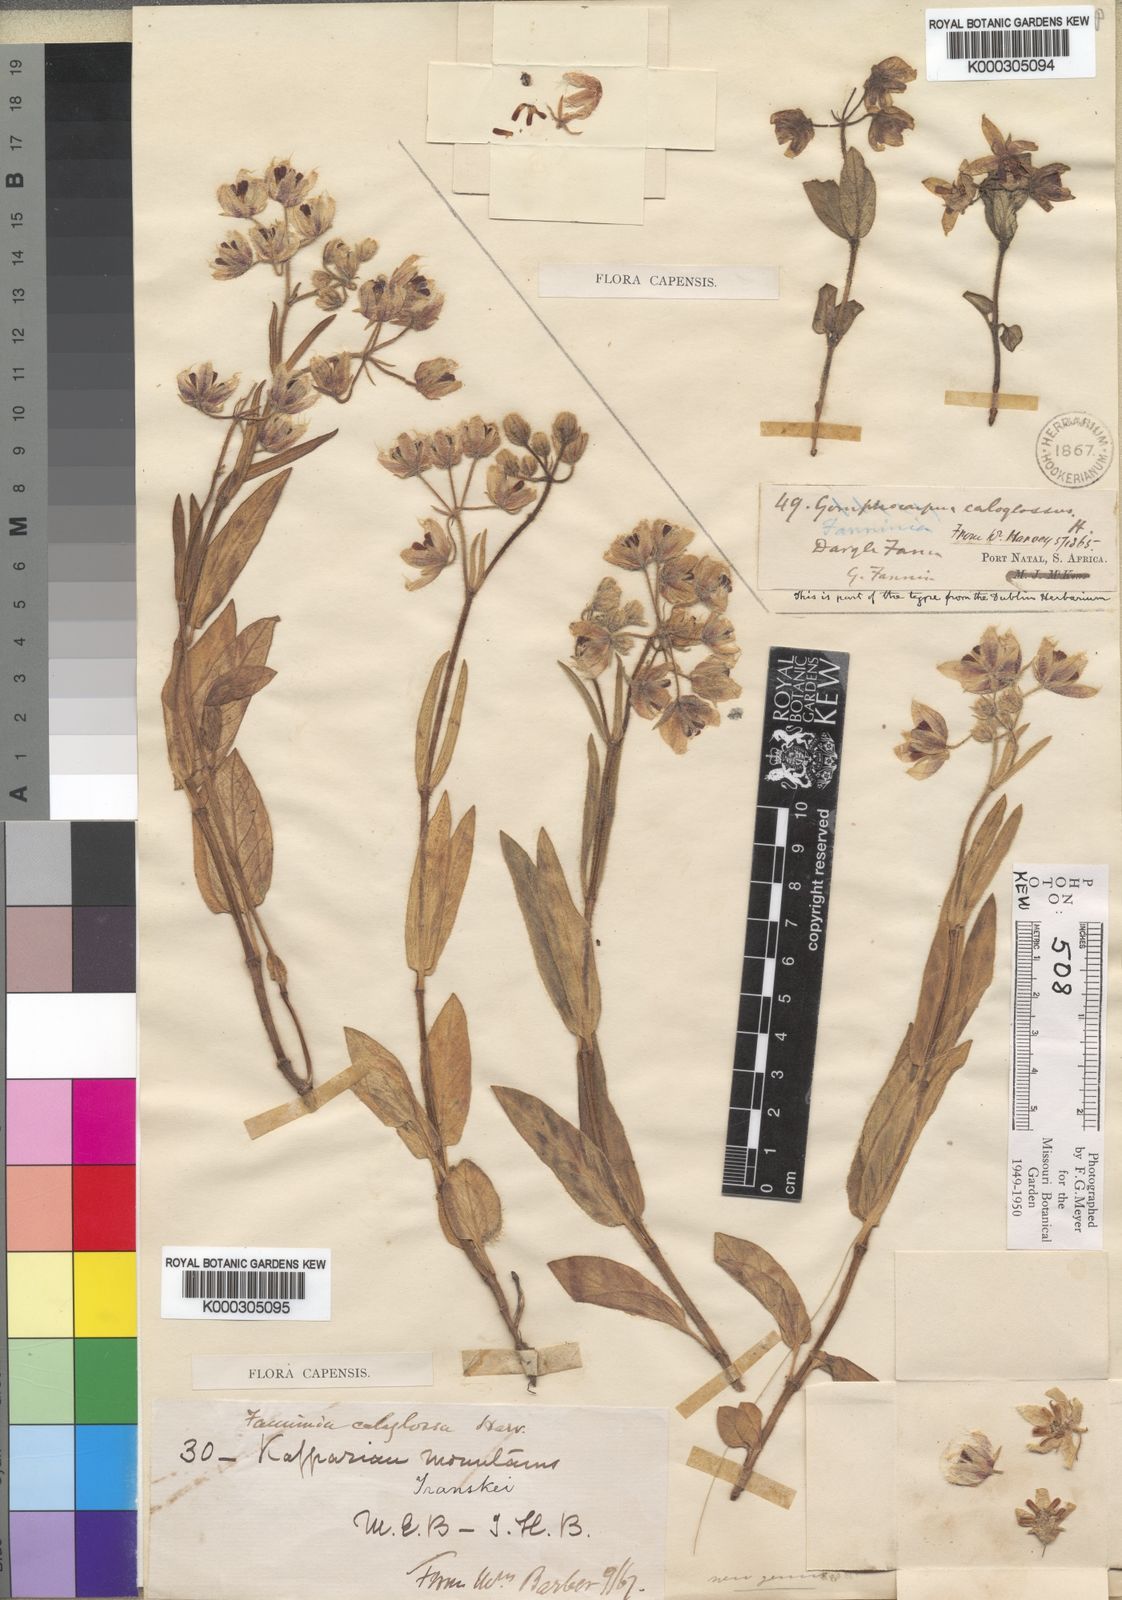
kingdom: Plantae
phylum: Tracheophyta
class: Magnoliopsida
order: Gentianales
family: Apocynaceae
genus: Fanninia
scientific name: Fanninia caloglossa
